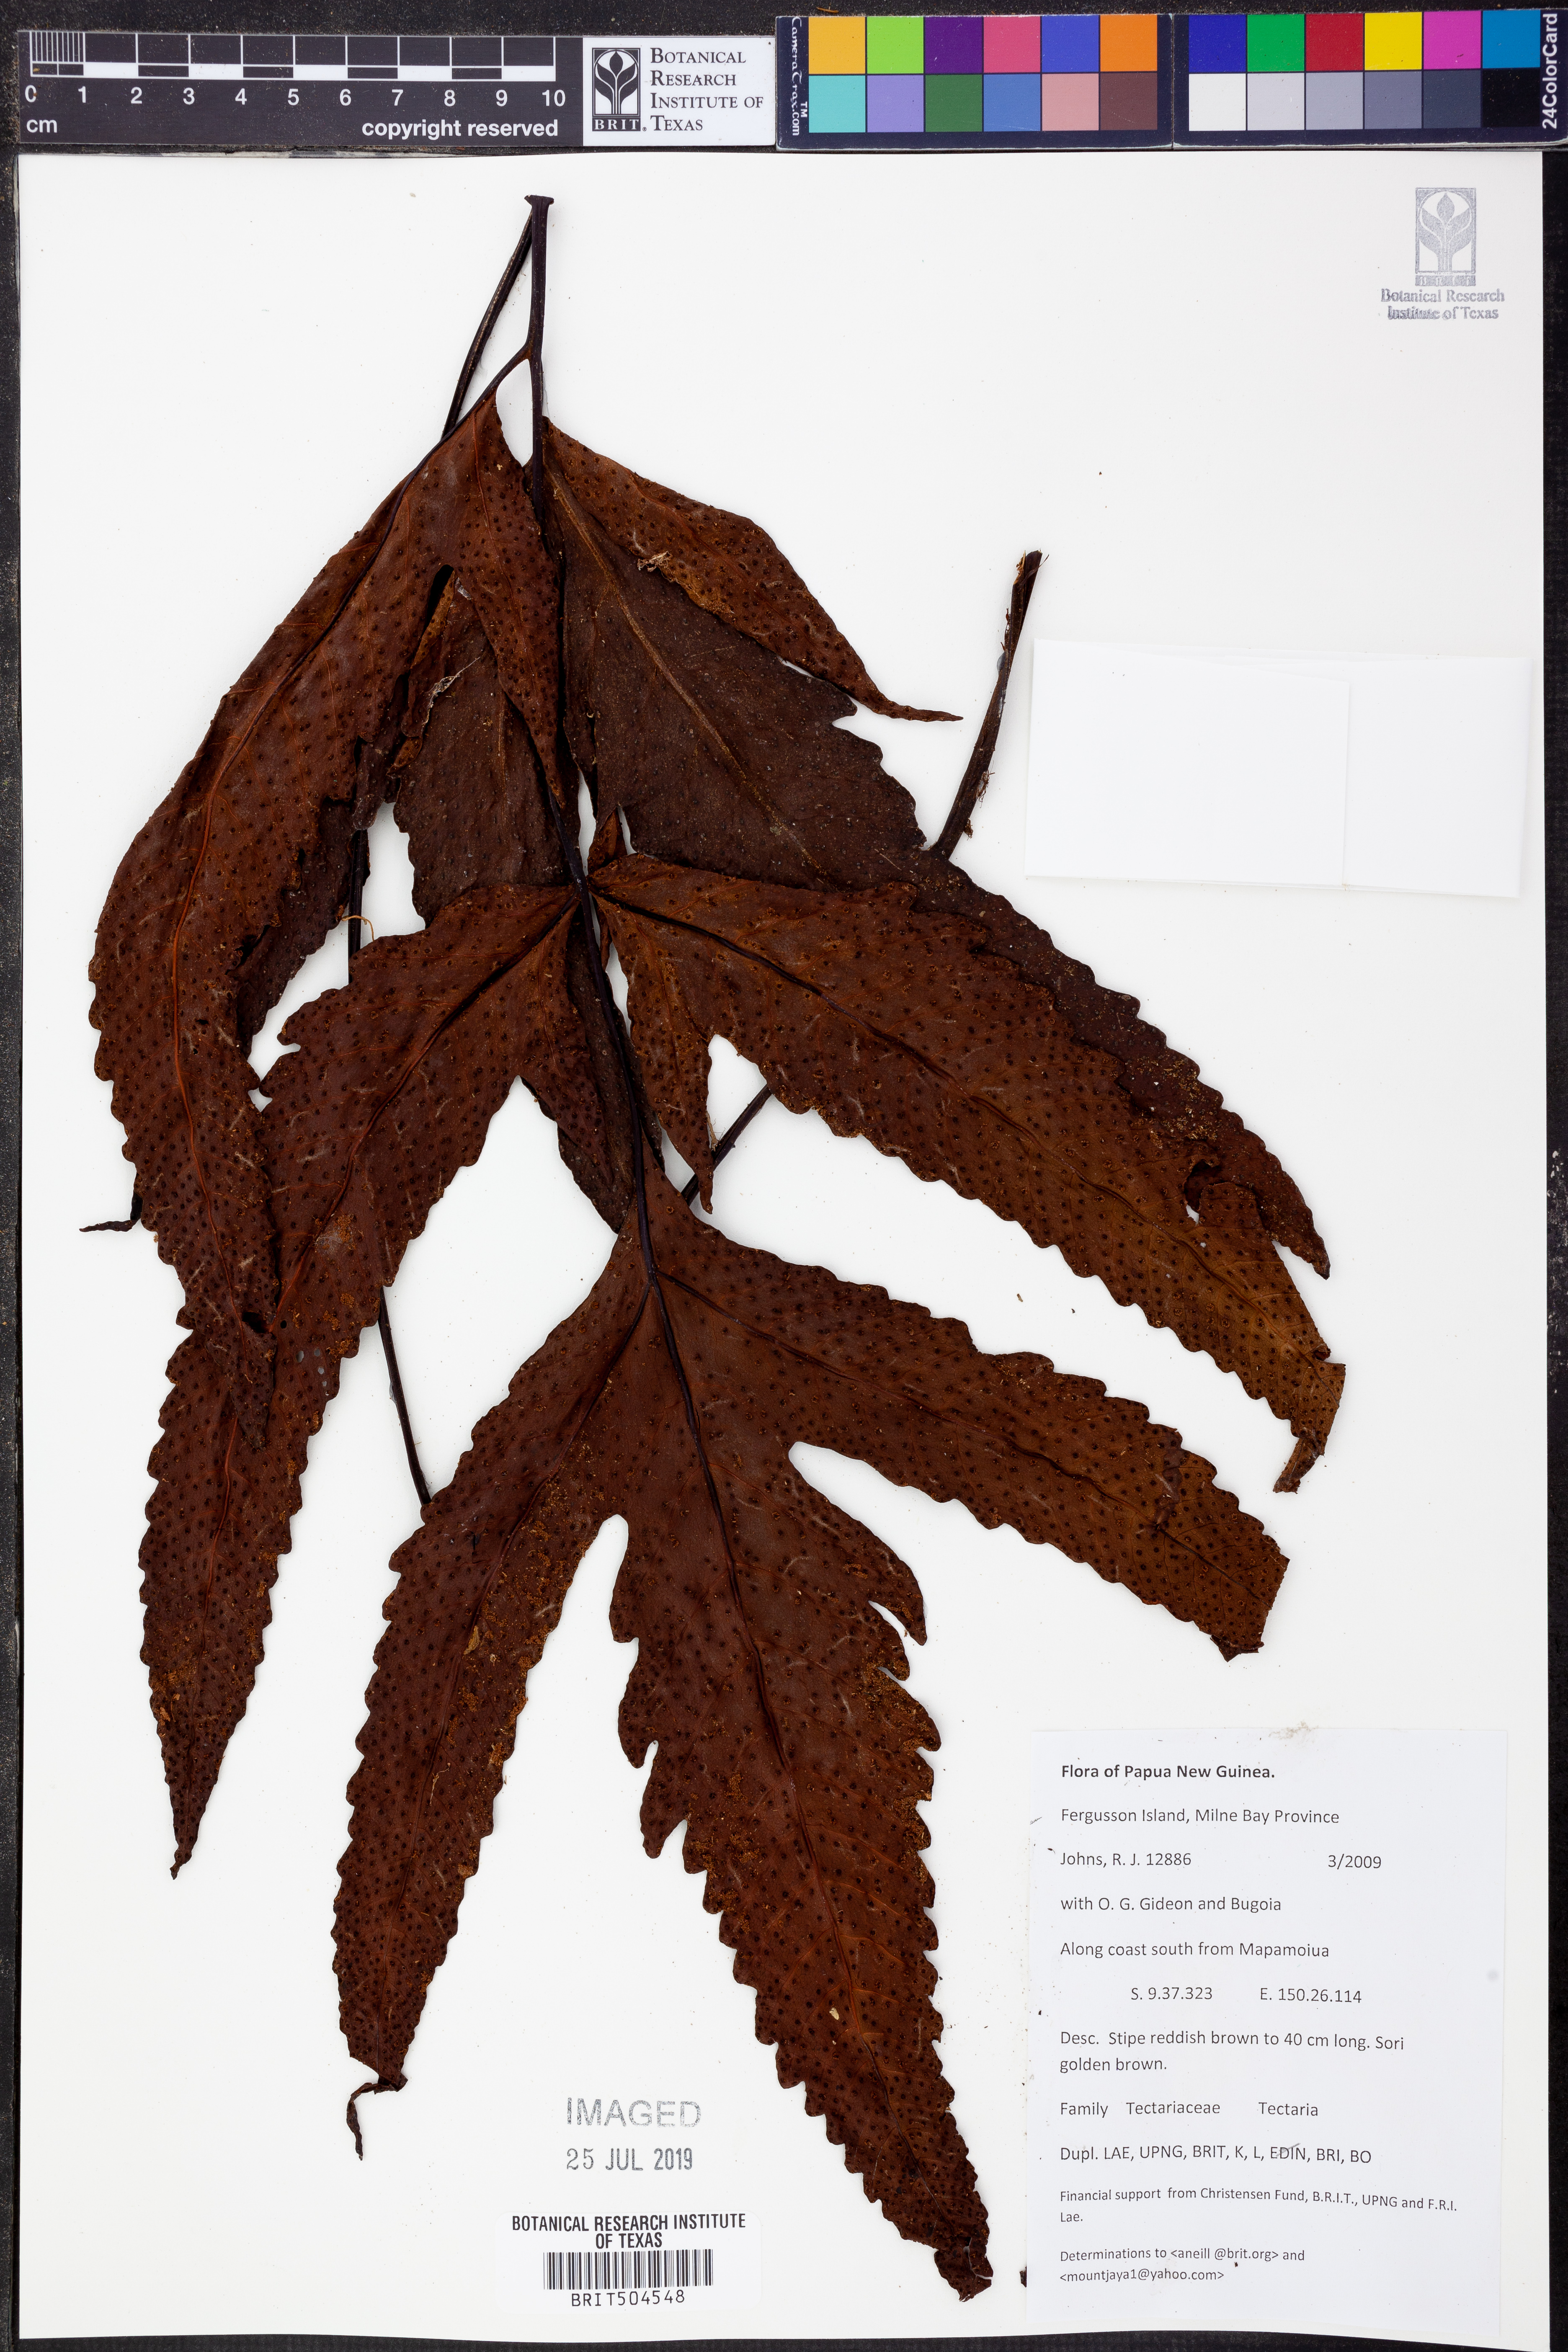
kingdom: Plantae
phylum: Tracheophyta
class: Polypodiopsida
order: Polypodiales
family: Tectariaceae
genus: Tectaria
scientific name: Tectaria
